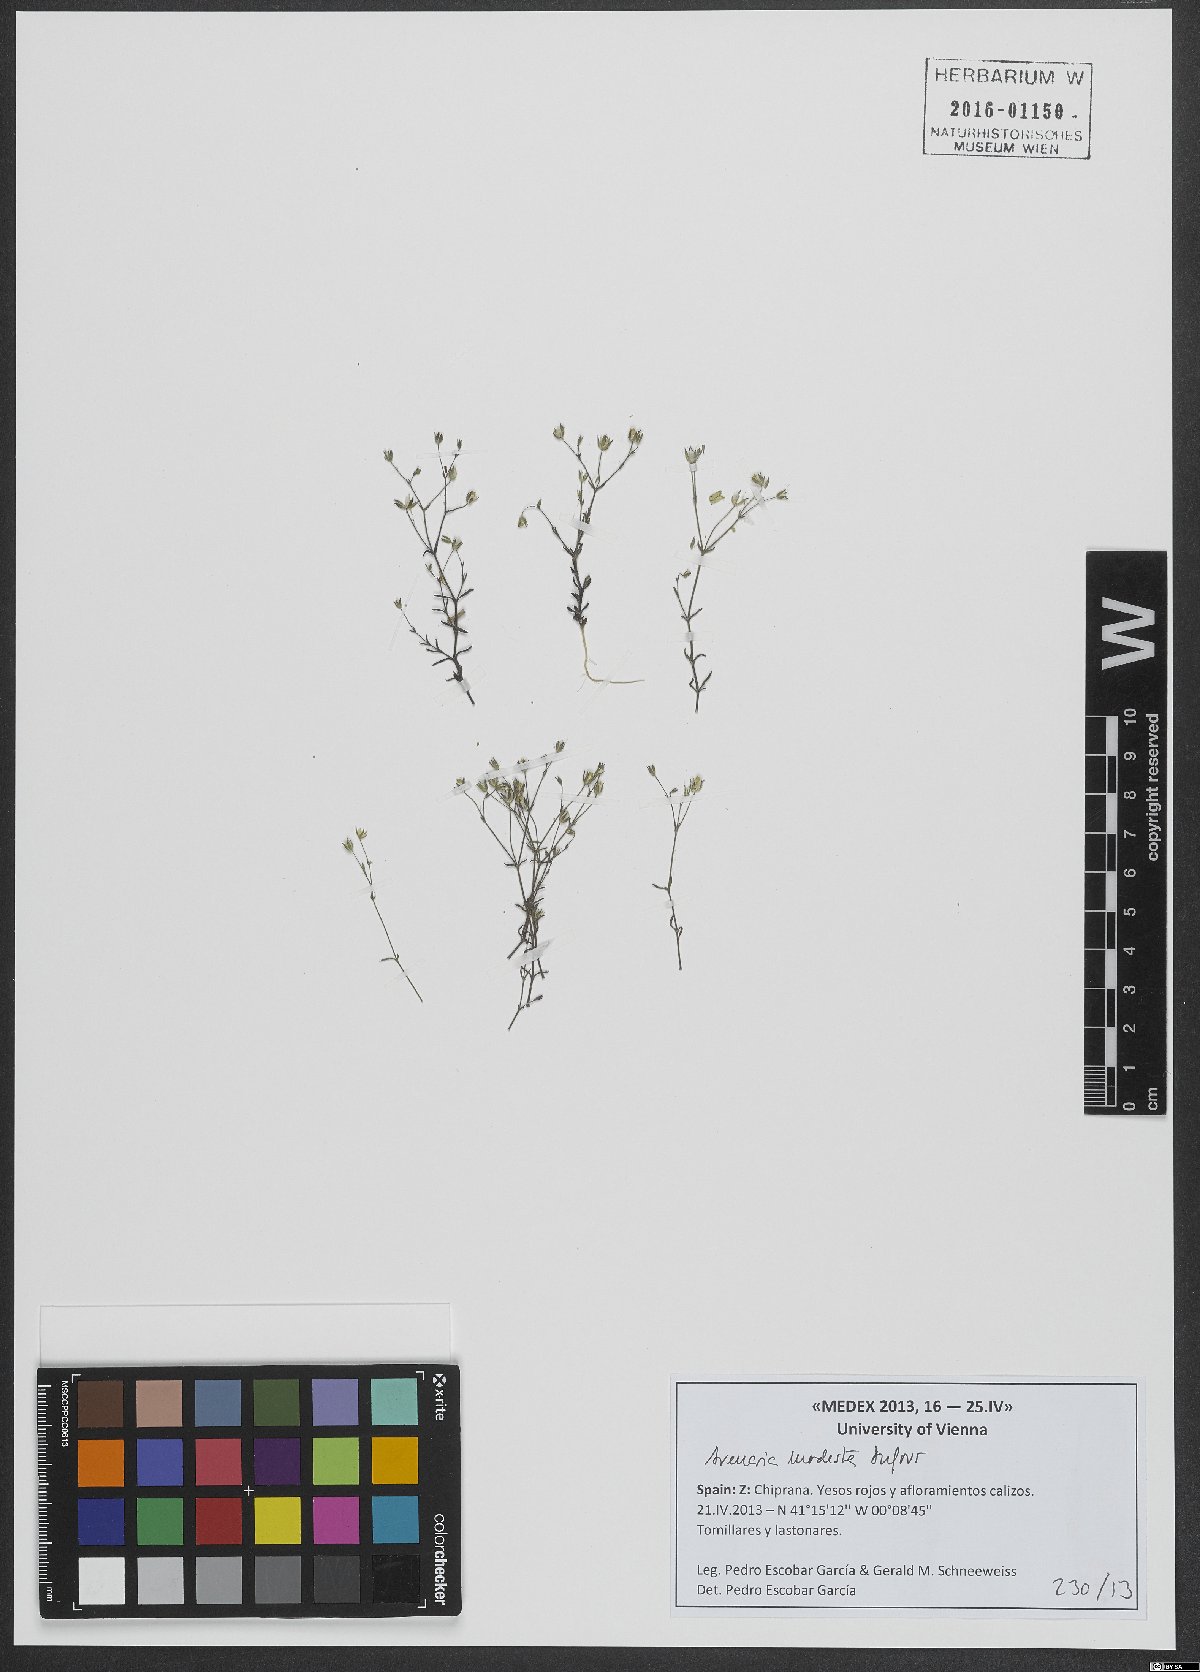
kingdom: Plantae
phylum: Tracheophyta
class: Magnoliopsida
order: Caryophyllales
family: Caryophyllaceae
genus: Arenaria
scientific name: Arenaria modesta
